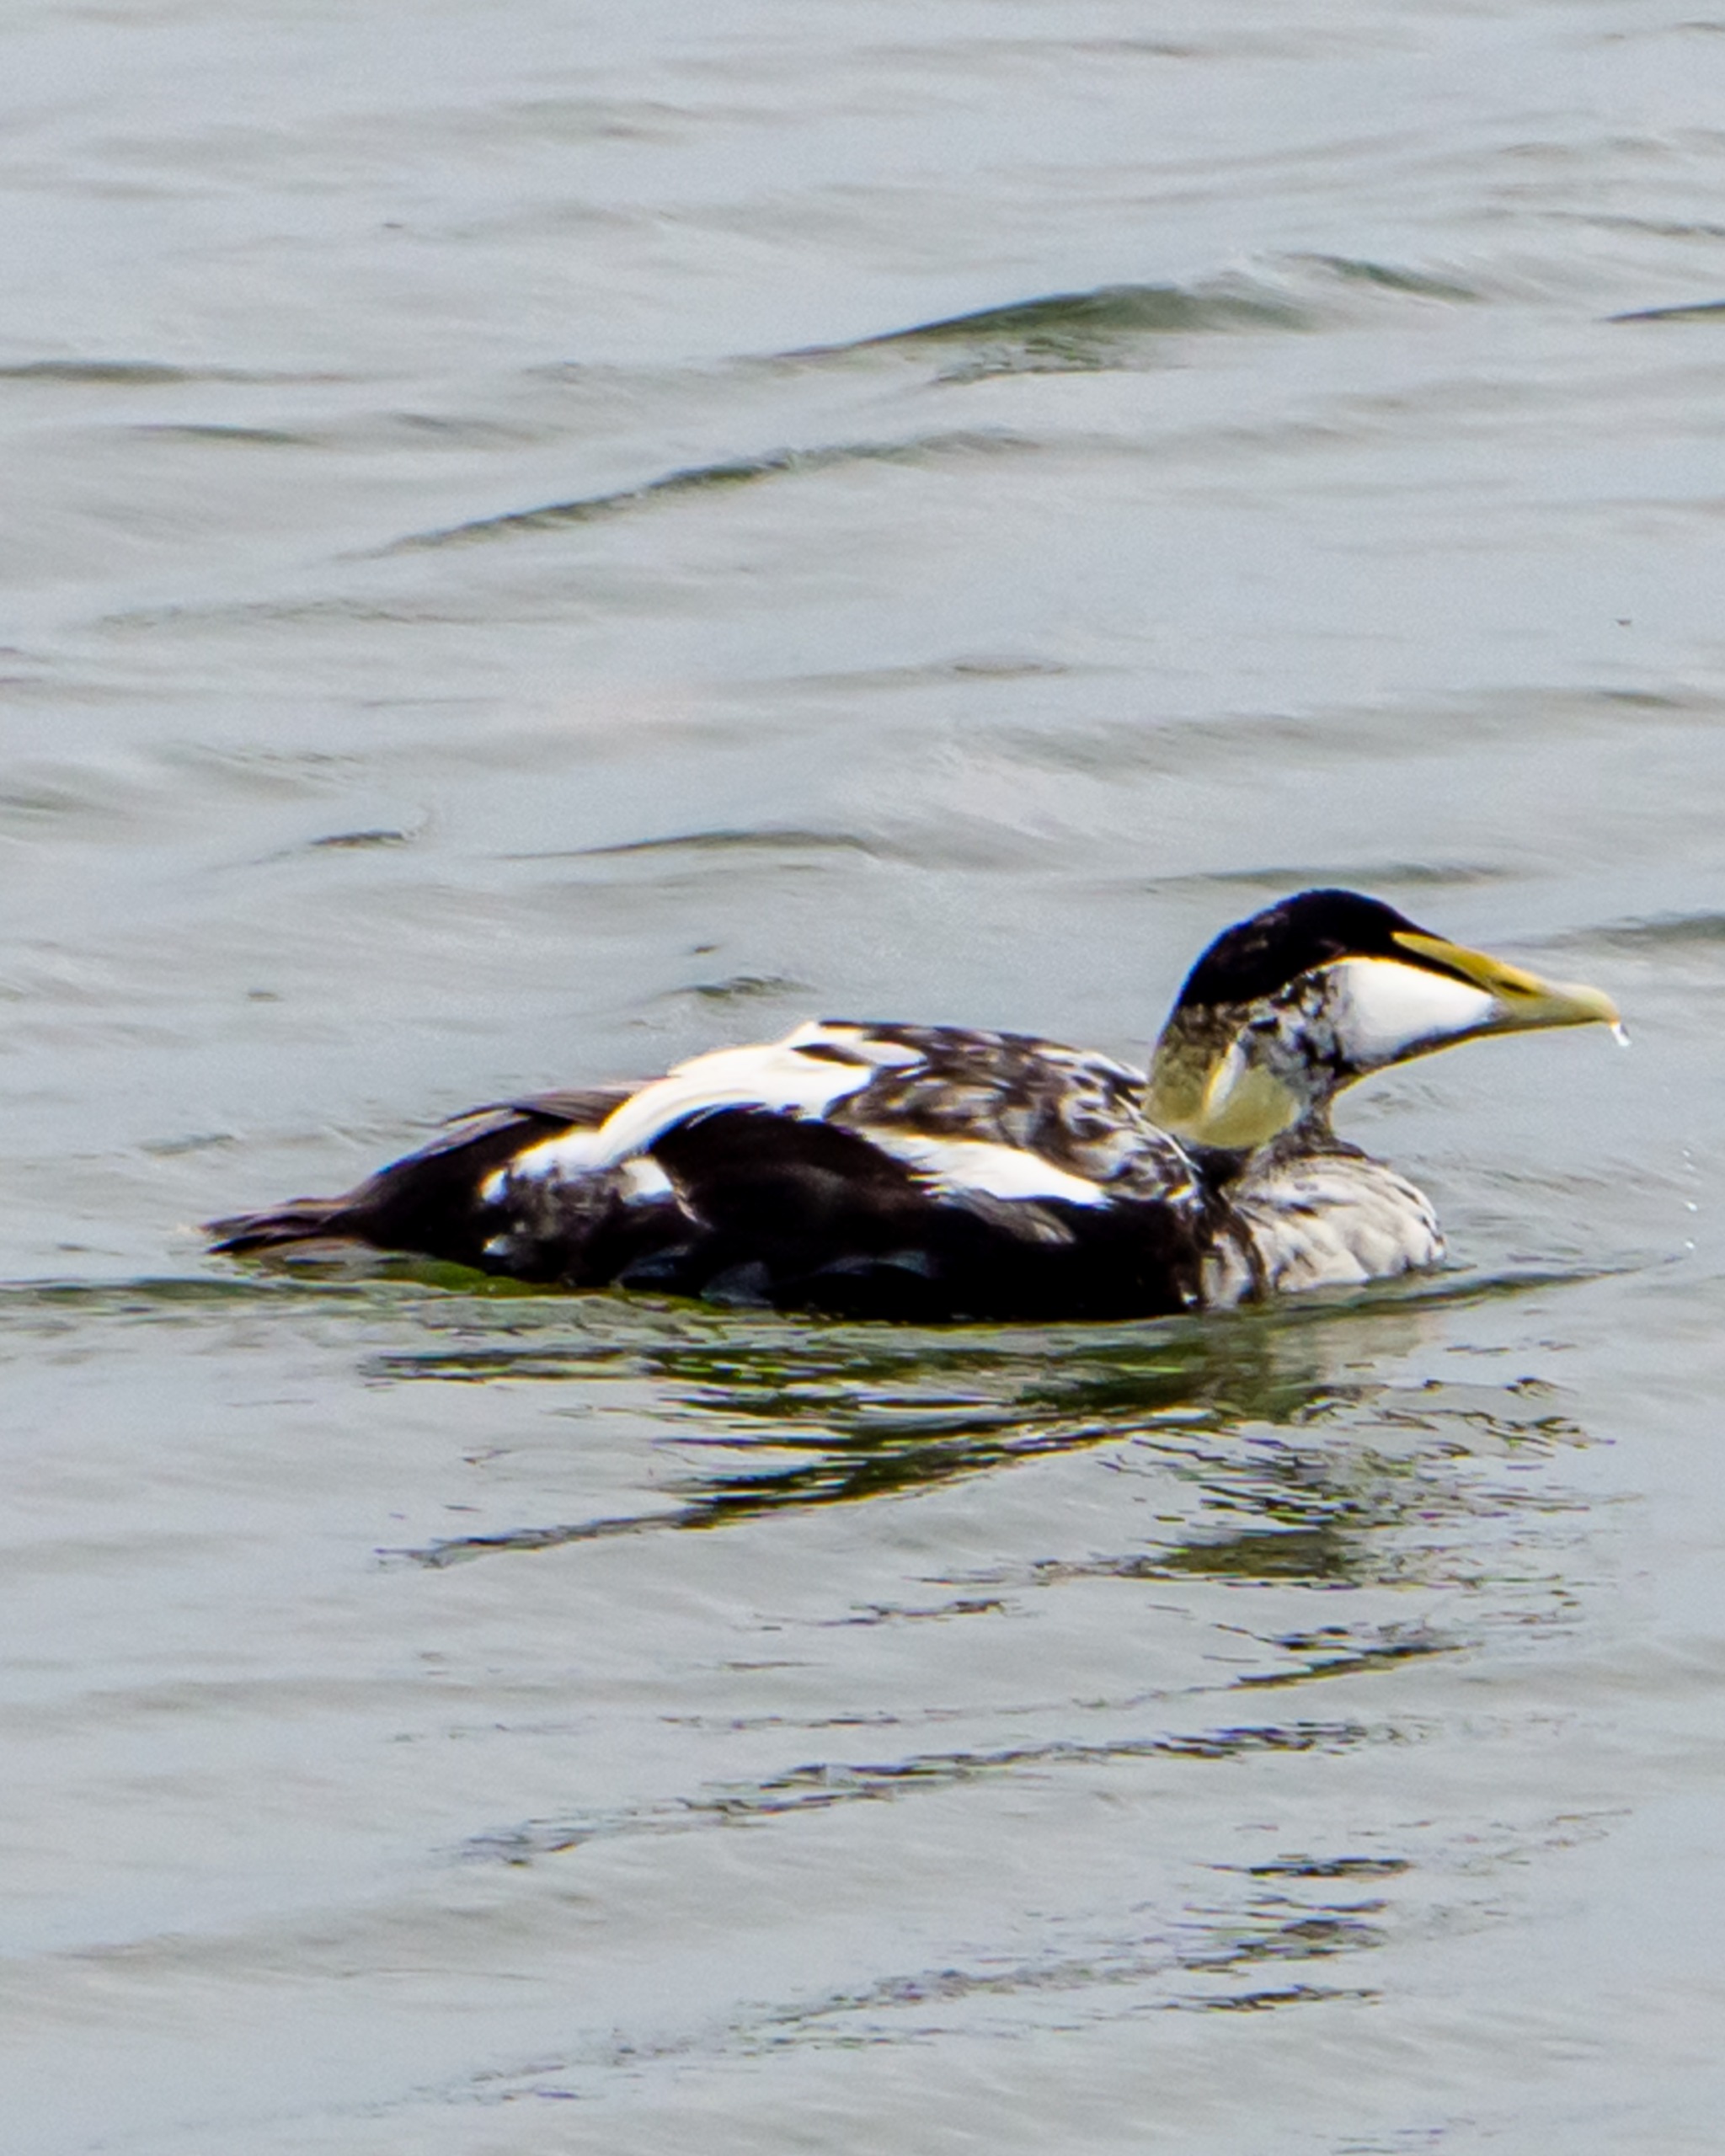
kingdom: Animalia
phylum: Chordata
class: Aves
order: Anseriformes
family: Anatidae
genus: Somateria
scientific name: Somateria mollissima
